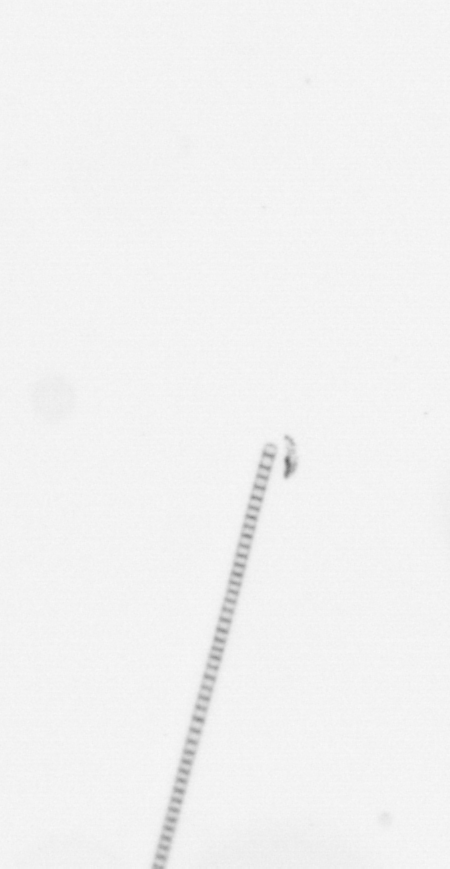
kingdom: Chromista
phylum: Ochrophyta
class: Bacillariophyceae
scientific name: Bacillariophyceae
